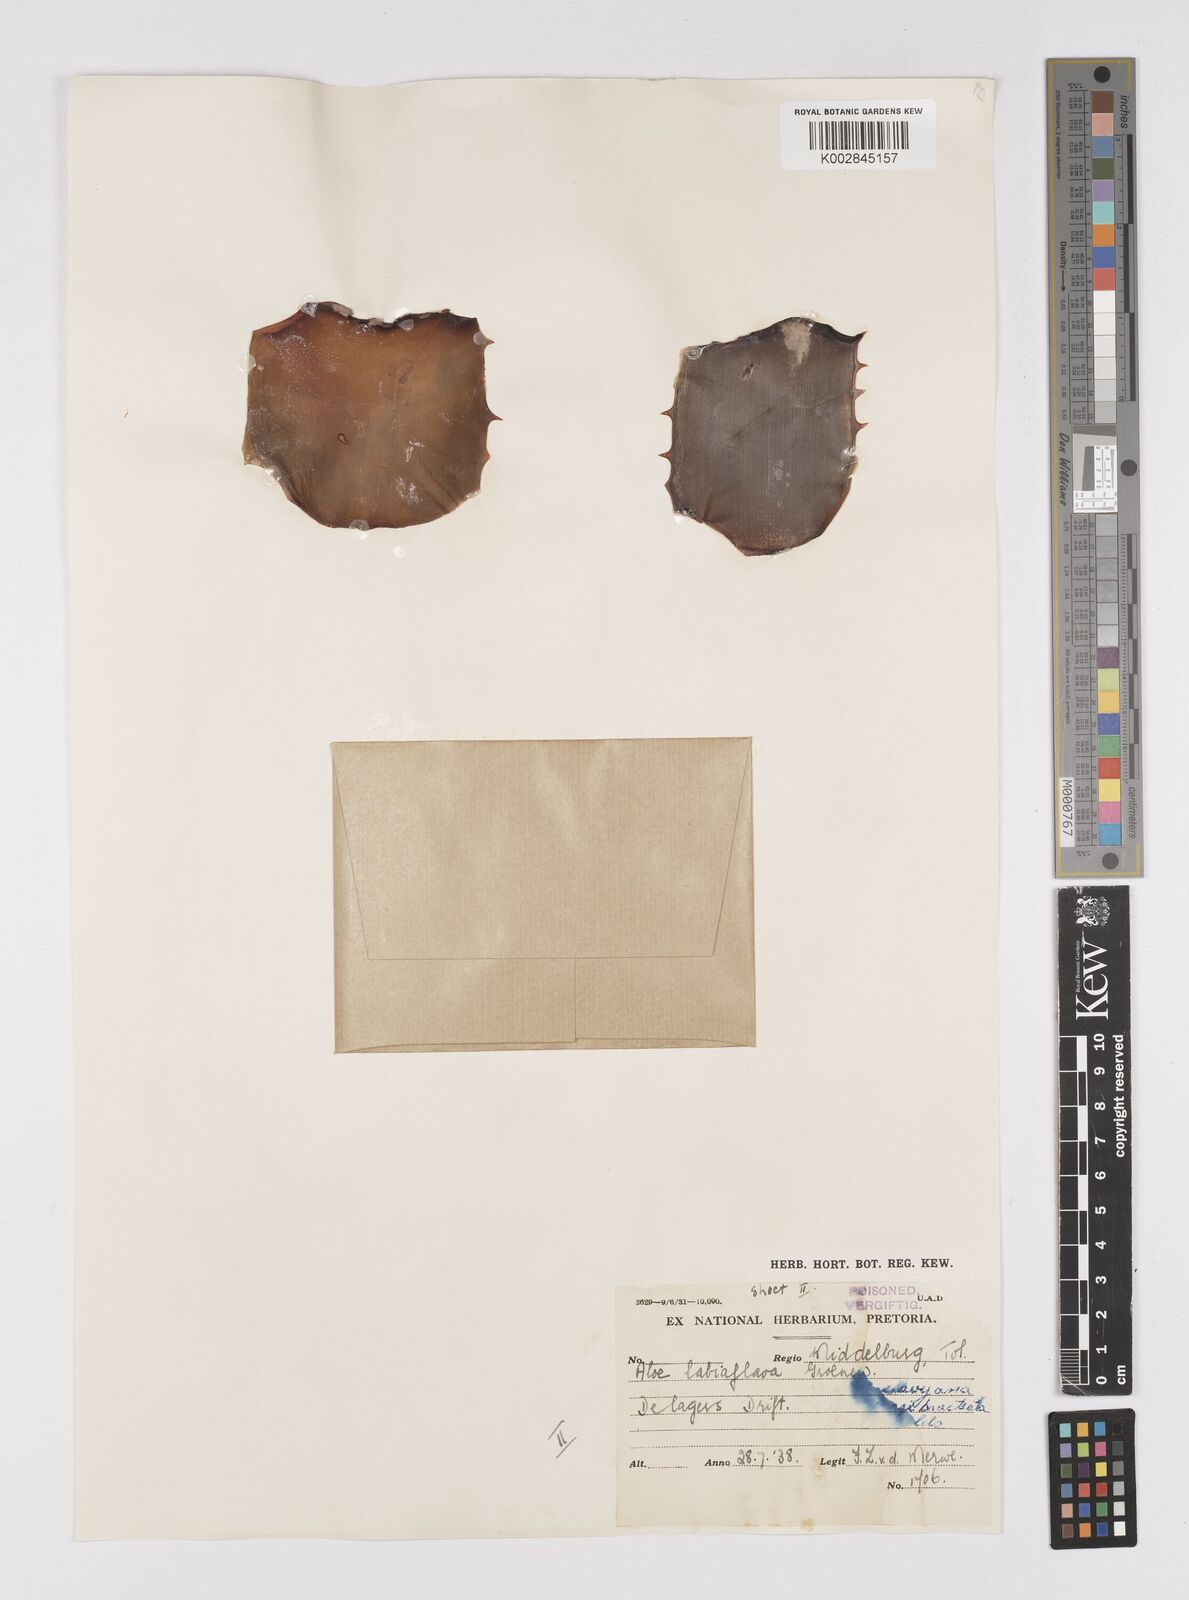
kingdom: Plantae
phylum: Tracheophyta
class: Liliopsida
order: Asparagales
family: Asphodelaceae
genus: Aloe
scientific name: Aloe longibracteata
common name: Limpopo spotted aloe
